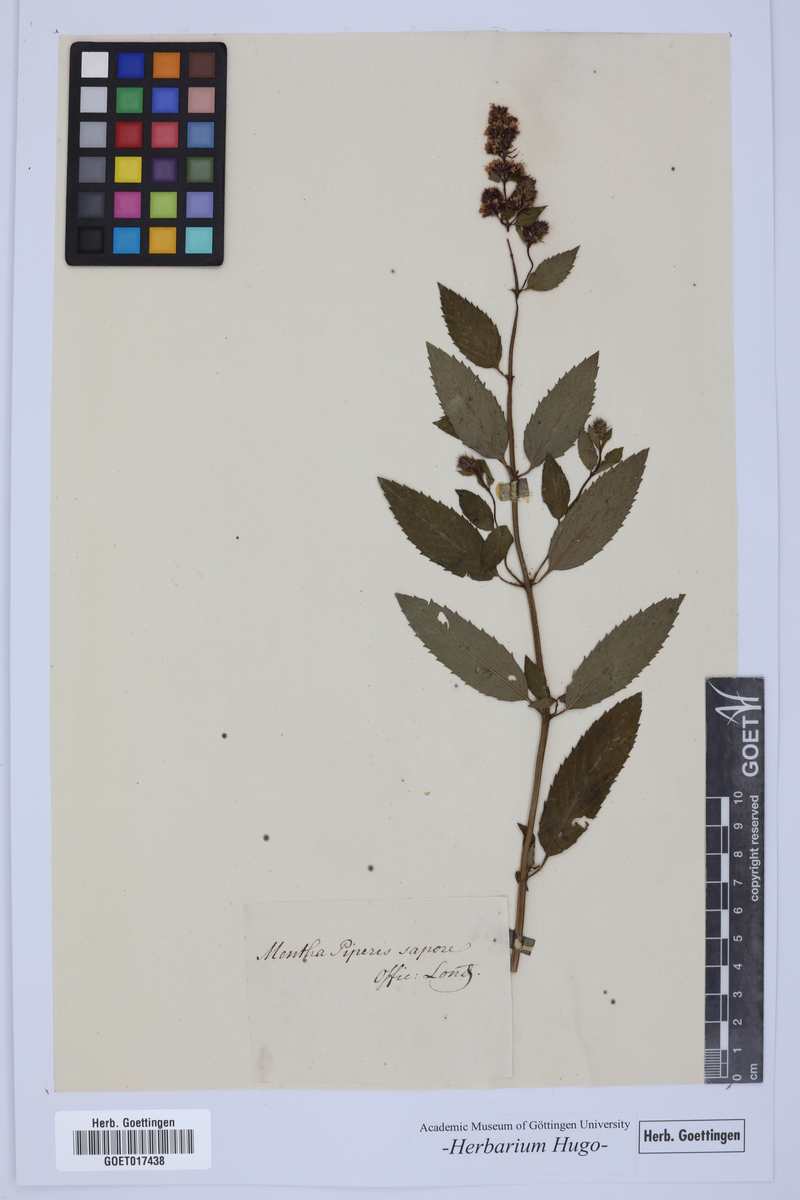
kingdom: Plantae
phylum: Tracheophyta
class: Magnoliopsida
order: Lamiales
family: Lamiaceae
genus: Mentha
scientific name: Mentha
